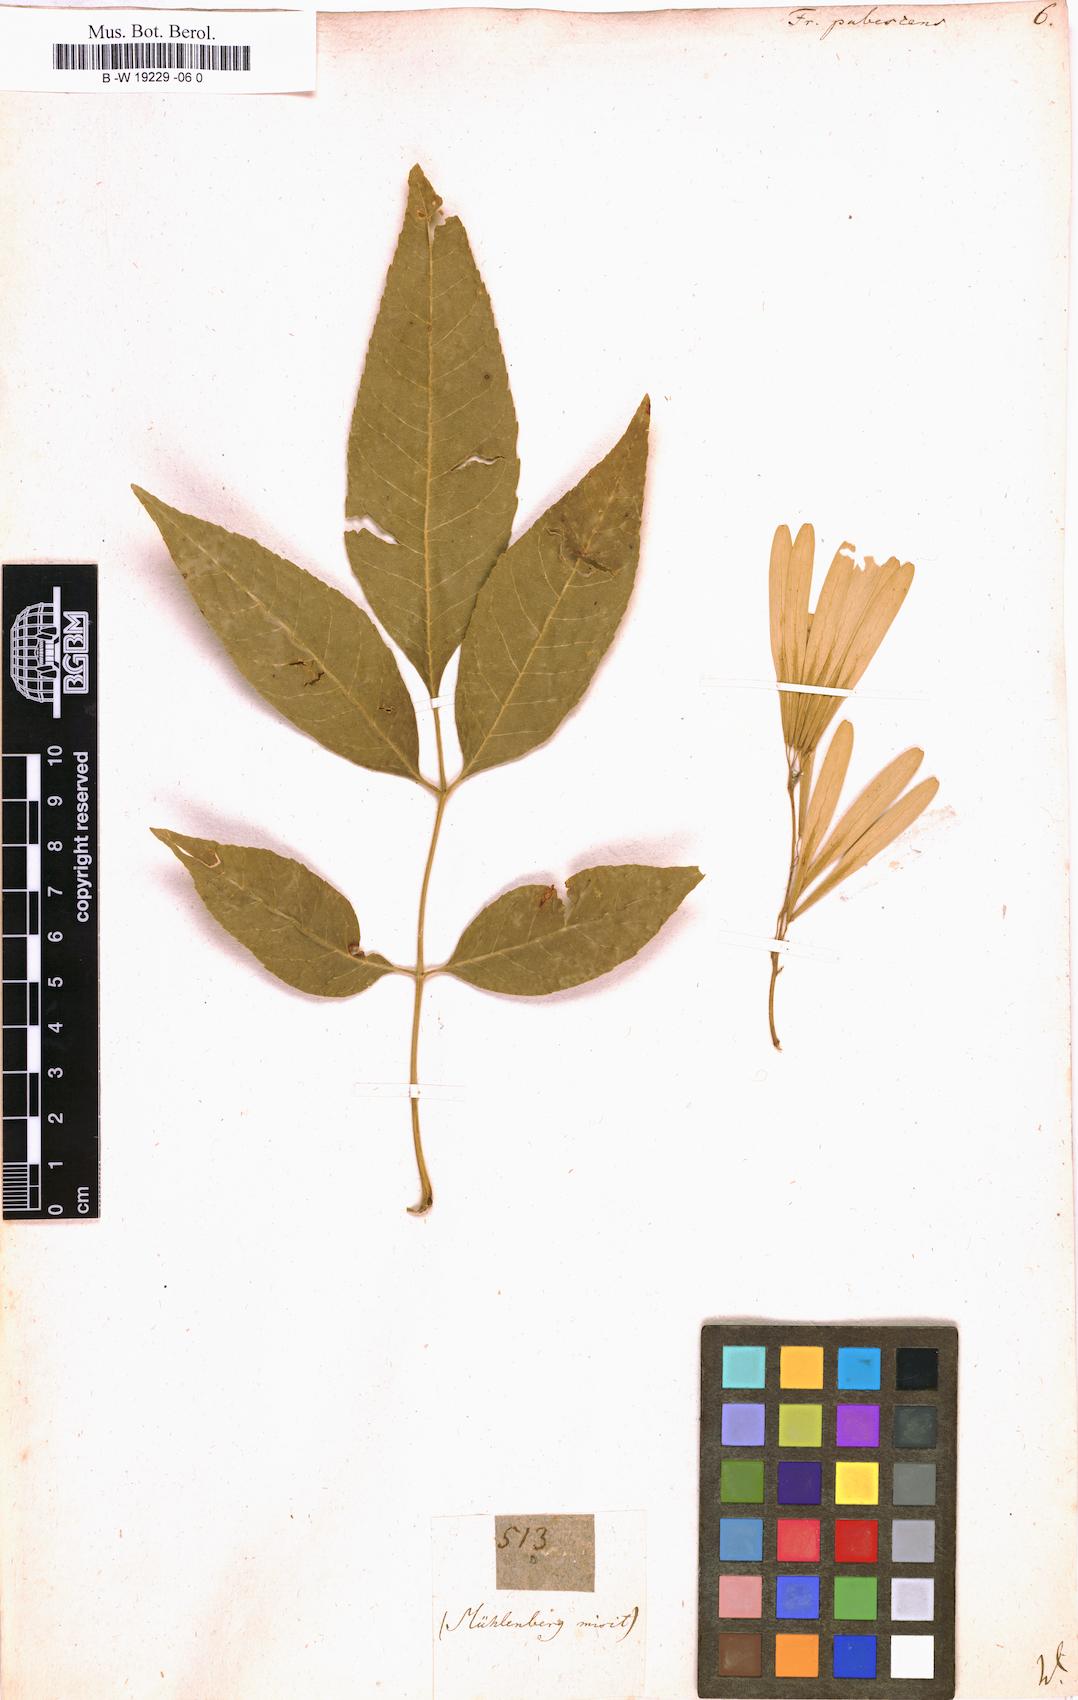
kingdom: Plantae
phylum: Tracheophyta
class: Magnoliopsida
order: Lamiales
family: Oleaceae
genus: Fraxinus
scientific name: Fraxinus pubescens
